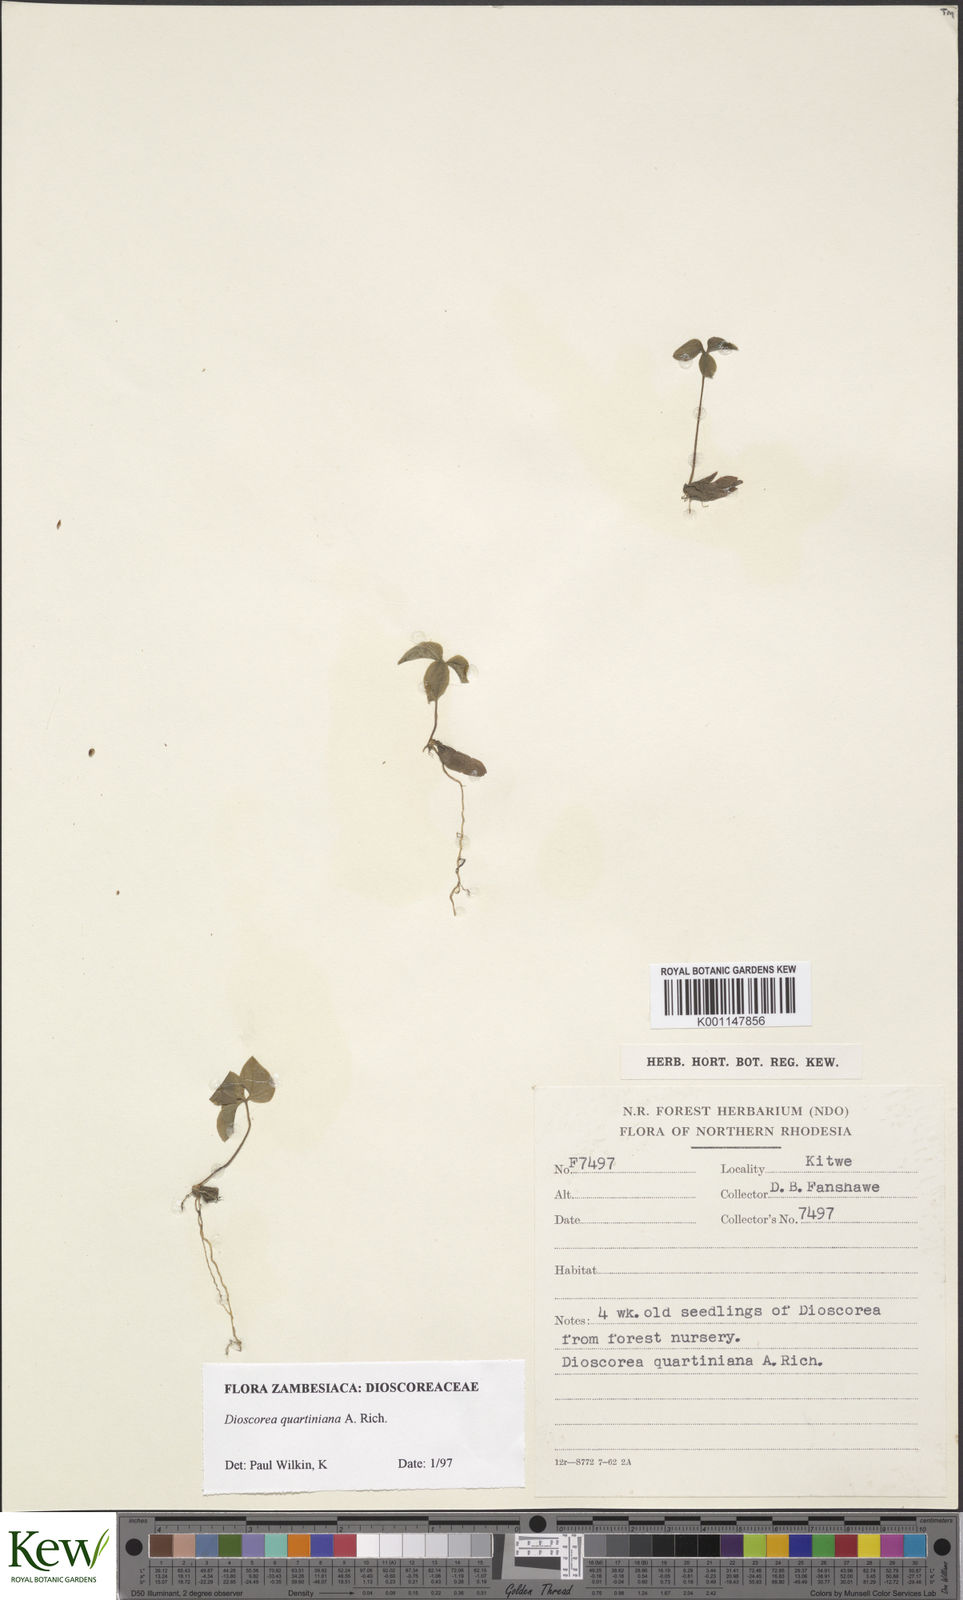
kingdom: Plantae
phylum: Tracheophyta
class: Liliopsida
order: Dioscoreales
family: Dioscoreaceae
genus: Dioscorea
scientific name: Dioscorea quartiniana
